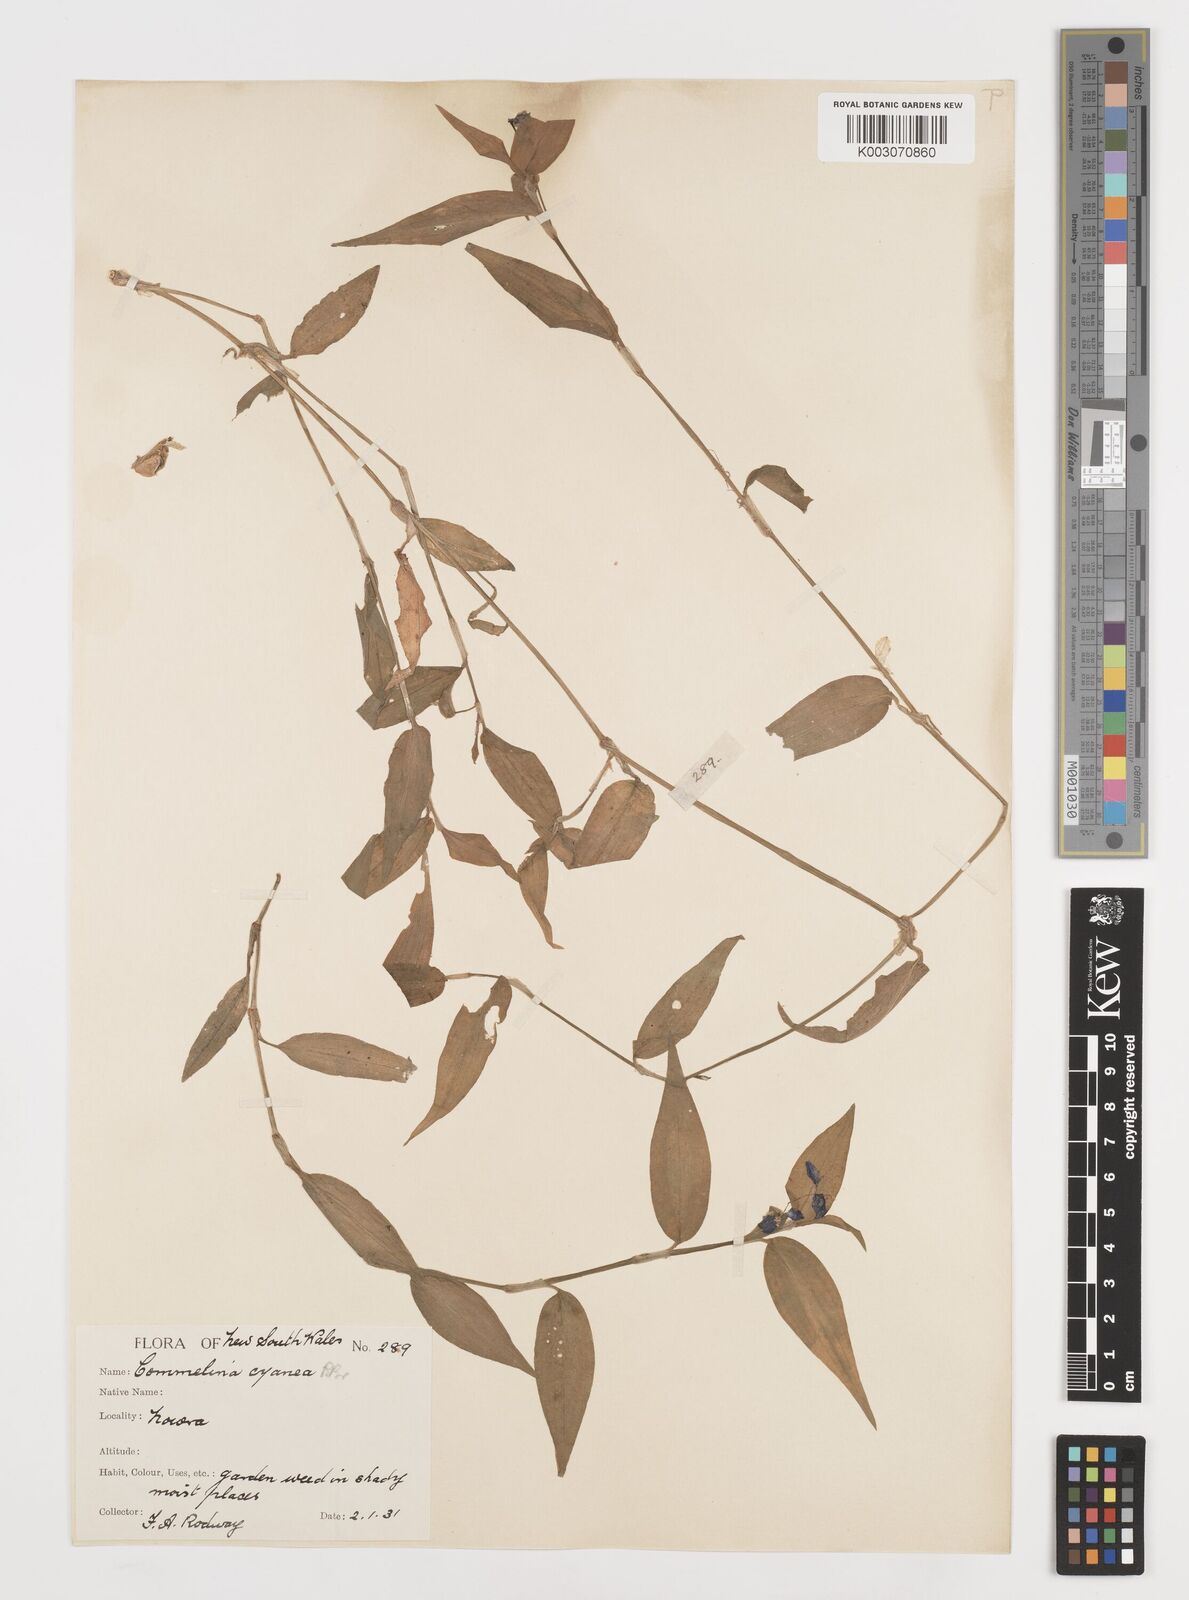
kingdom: Plantae
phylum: Tracheophyta
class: Liliopsida
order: Commelinales
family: Commelinaceae
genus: Commelina
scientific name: Commelina cyanea
